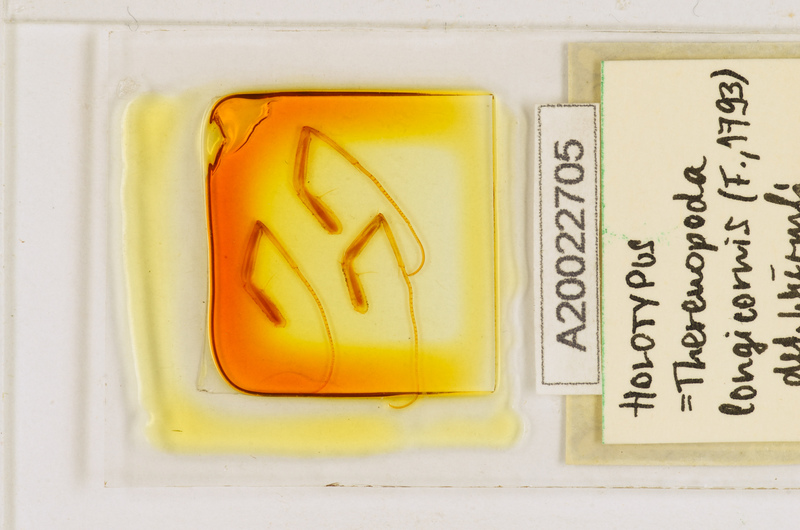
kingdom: Animalia
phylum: Arthropoda
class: Chilopoda
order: Scutigeromorpha
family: Scutigeridae
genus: Thereuopoda
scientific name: Thereuopoda longicornis
